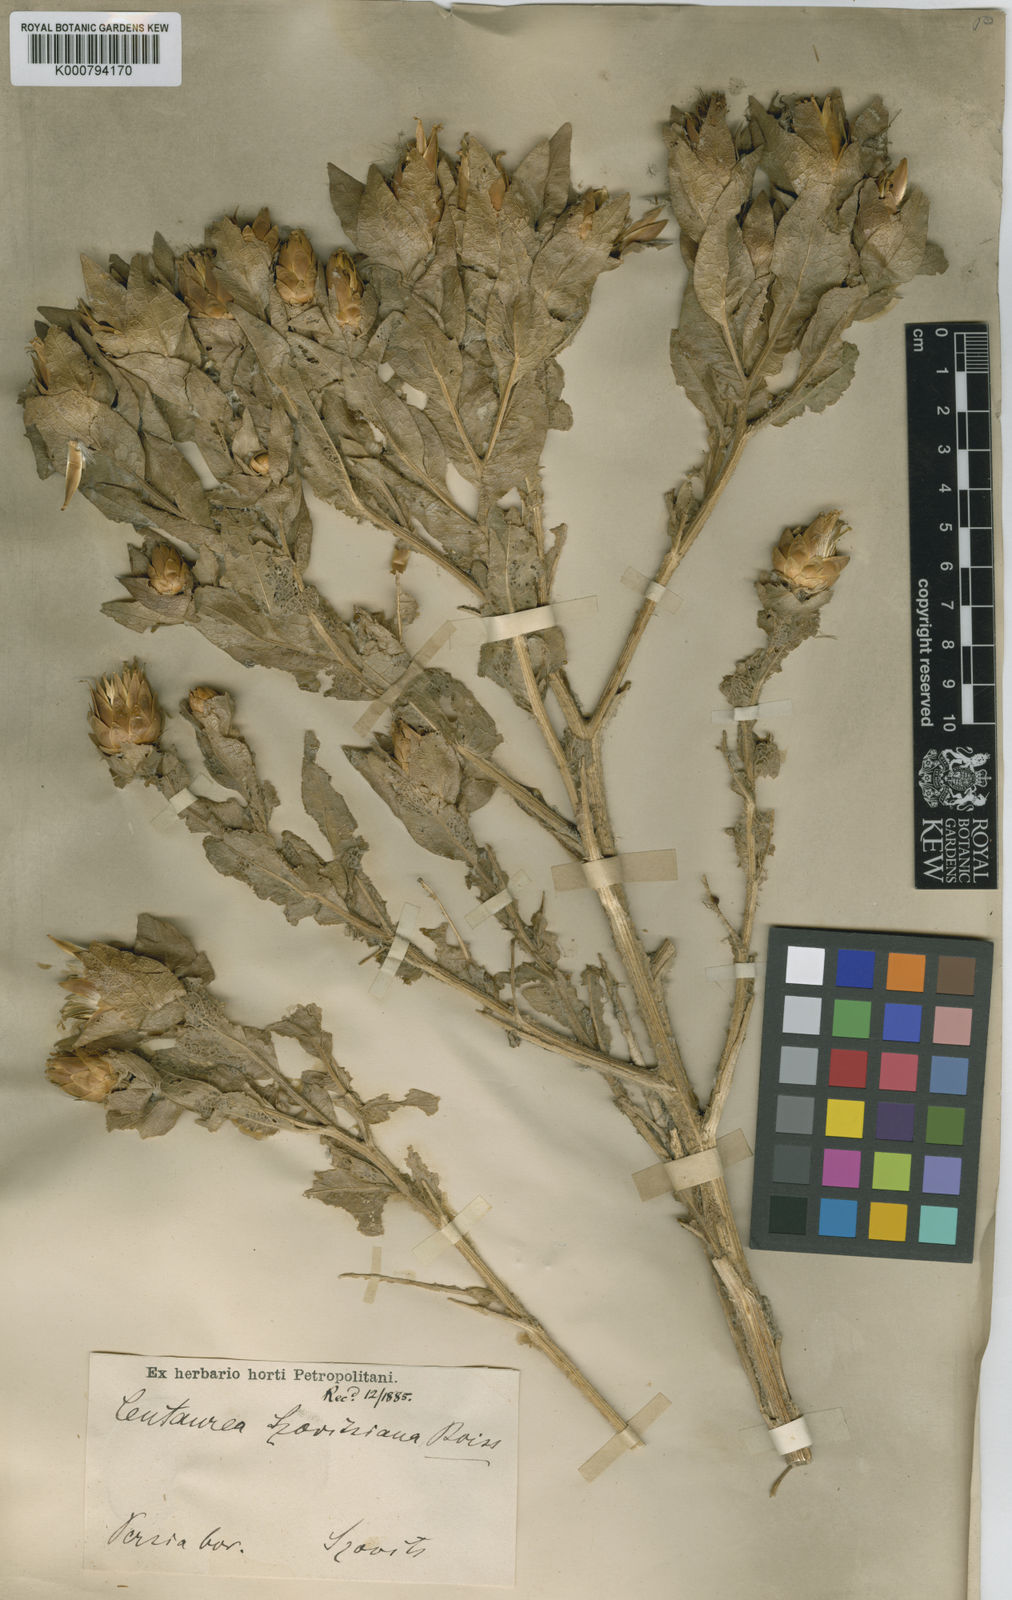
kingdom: Plantae
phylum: Tracheophyta
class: Magnoliopsida
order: Asterales
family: Asteraceae
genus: Centaurea
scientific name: Centaurea szovitsiana
